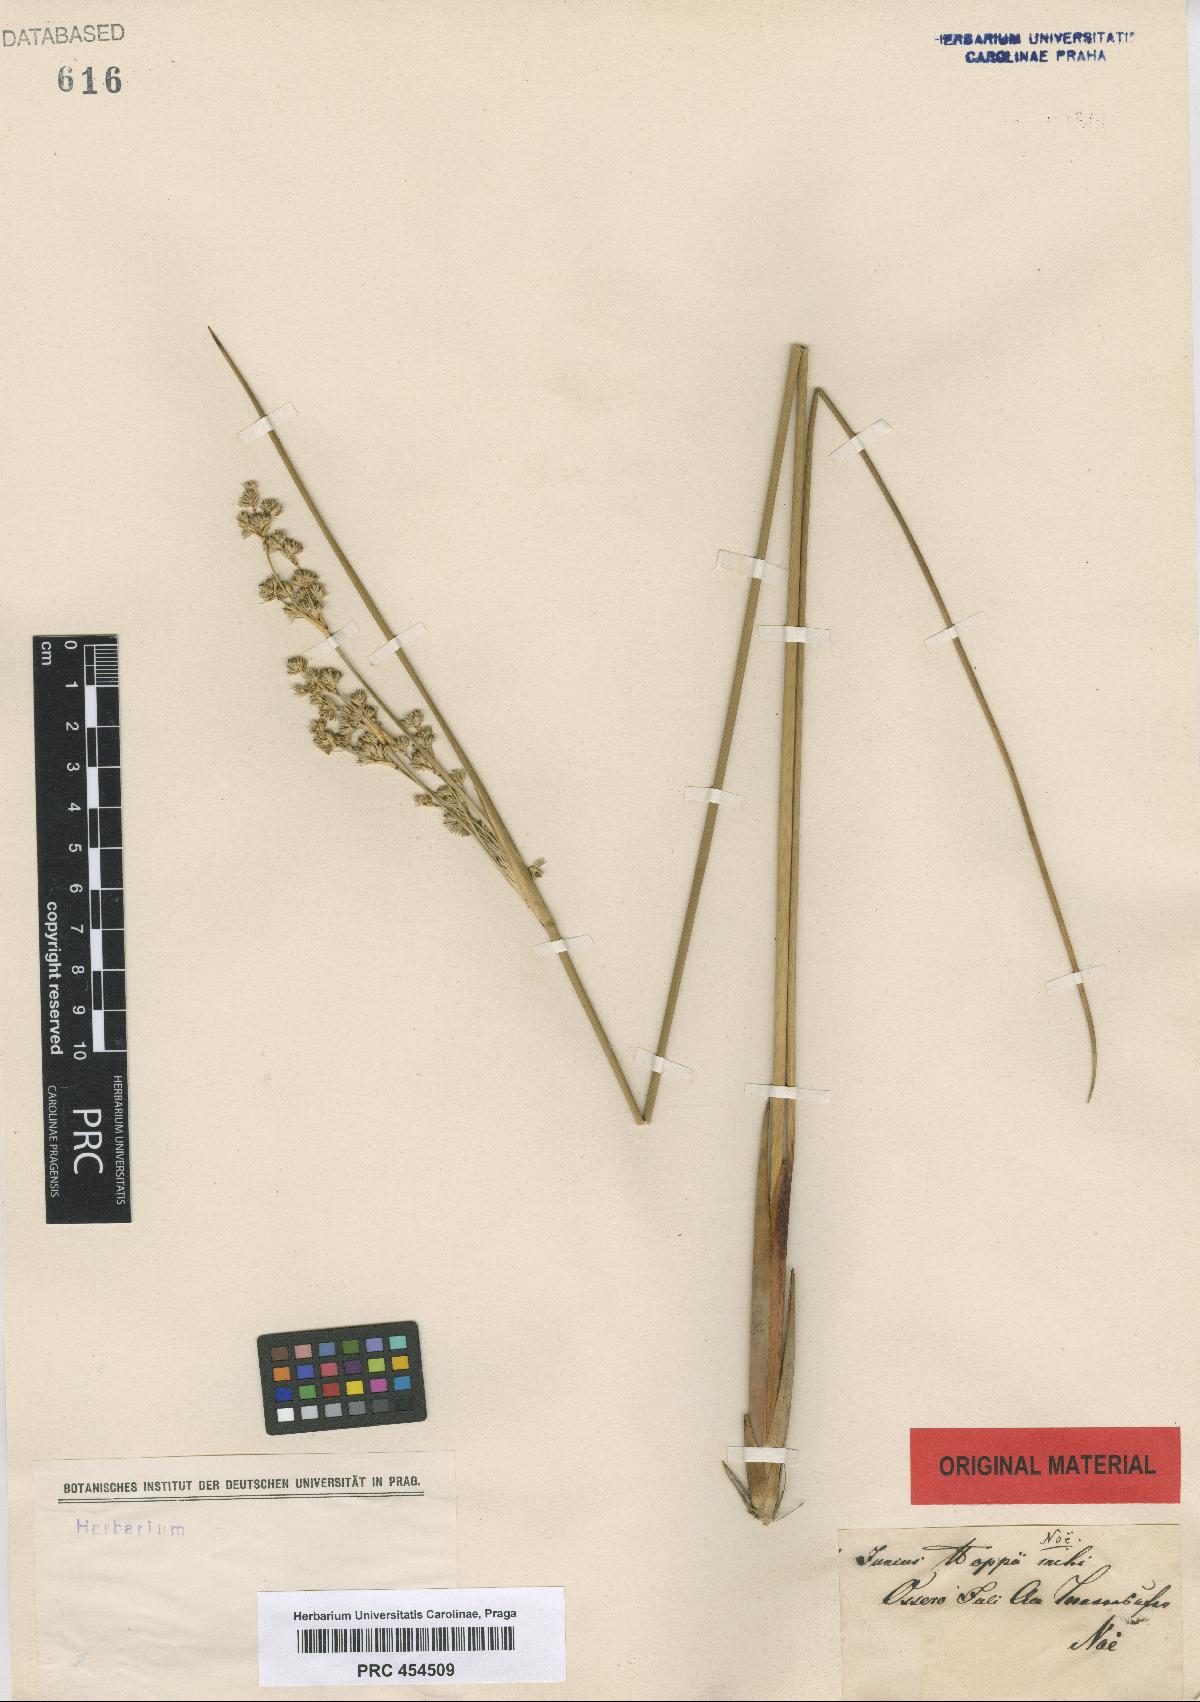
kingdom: Plantae
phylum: Tracheophyta
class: Liliopsida
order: Poales
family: Juncaceae
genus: Juncus
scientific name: Juncus hoppii
